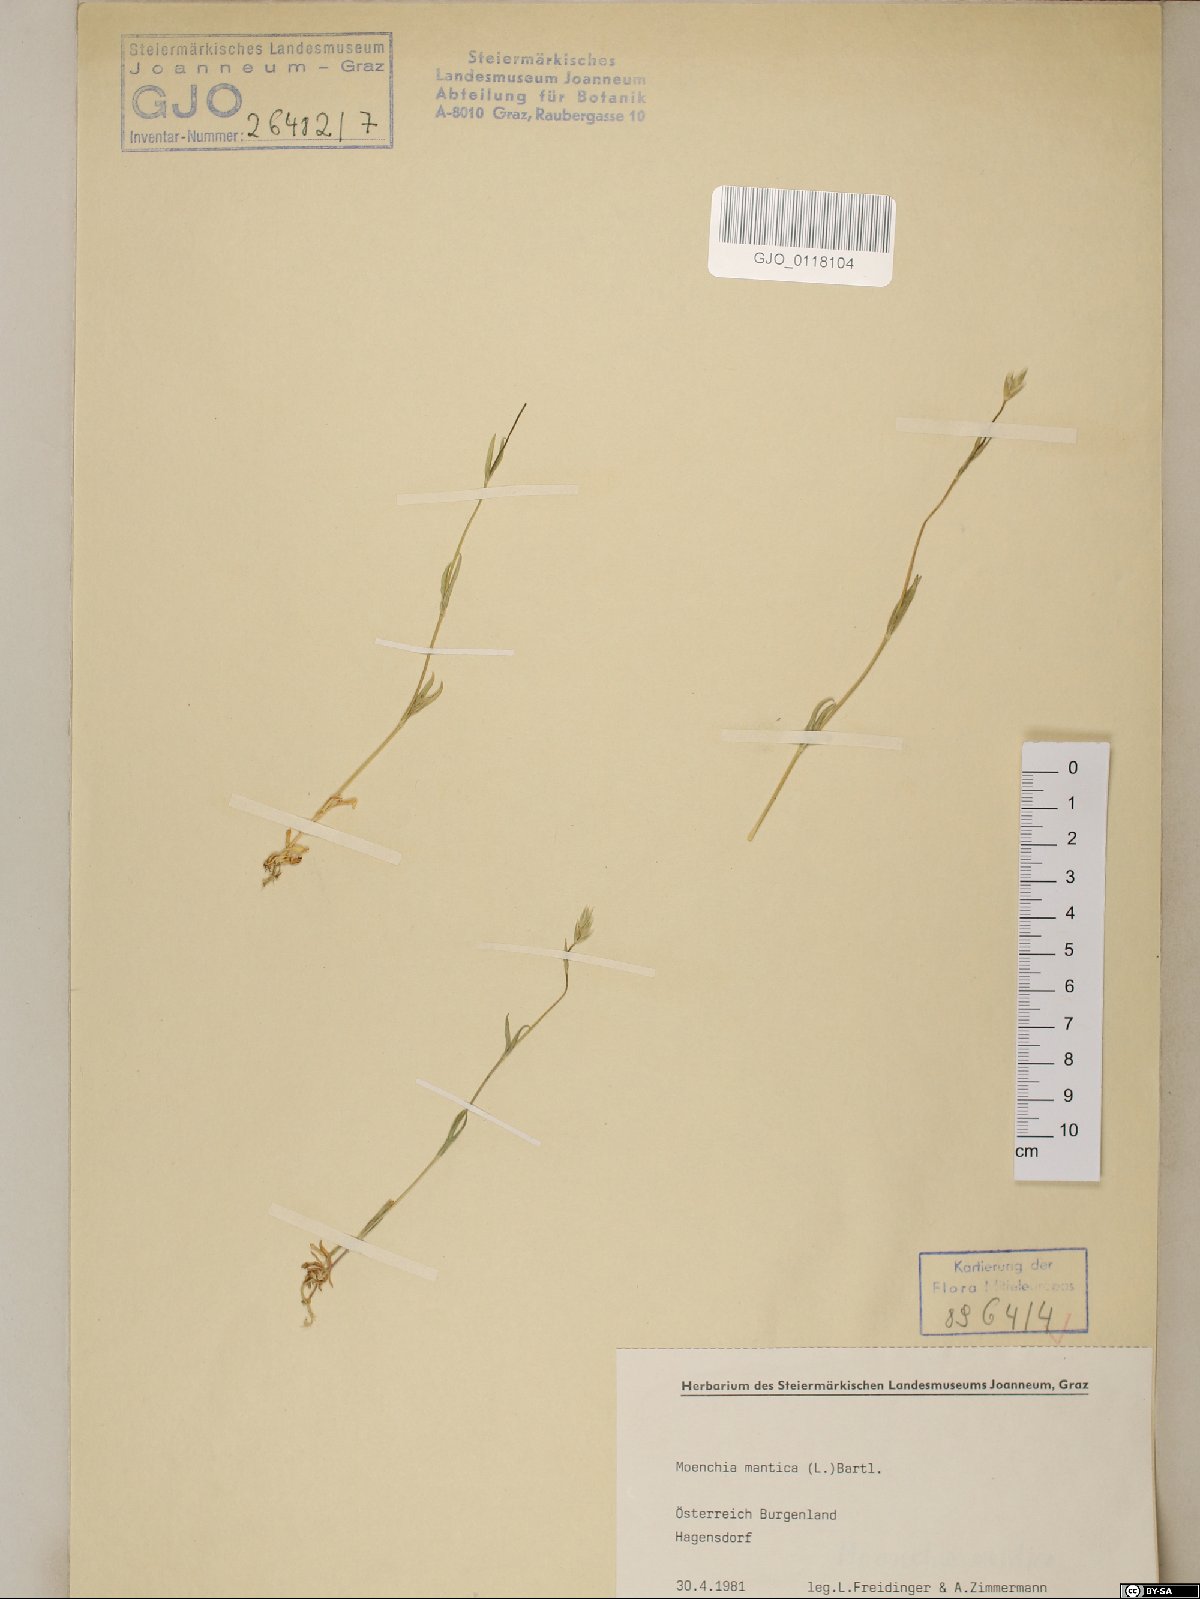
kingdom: Plantae
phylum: Tracheophyta
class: Magnoliopsida
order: Caryophyllales
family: Caryophyllaceae
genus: Moenchia
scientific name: Moenchia mantica
